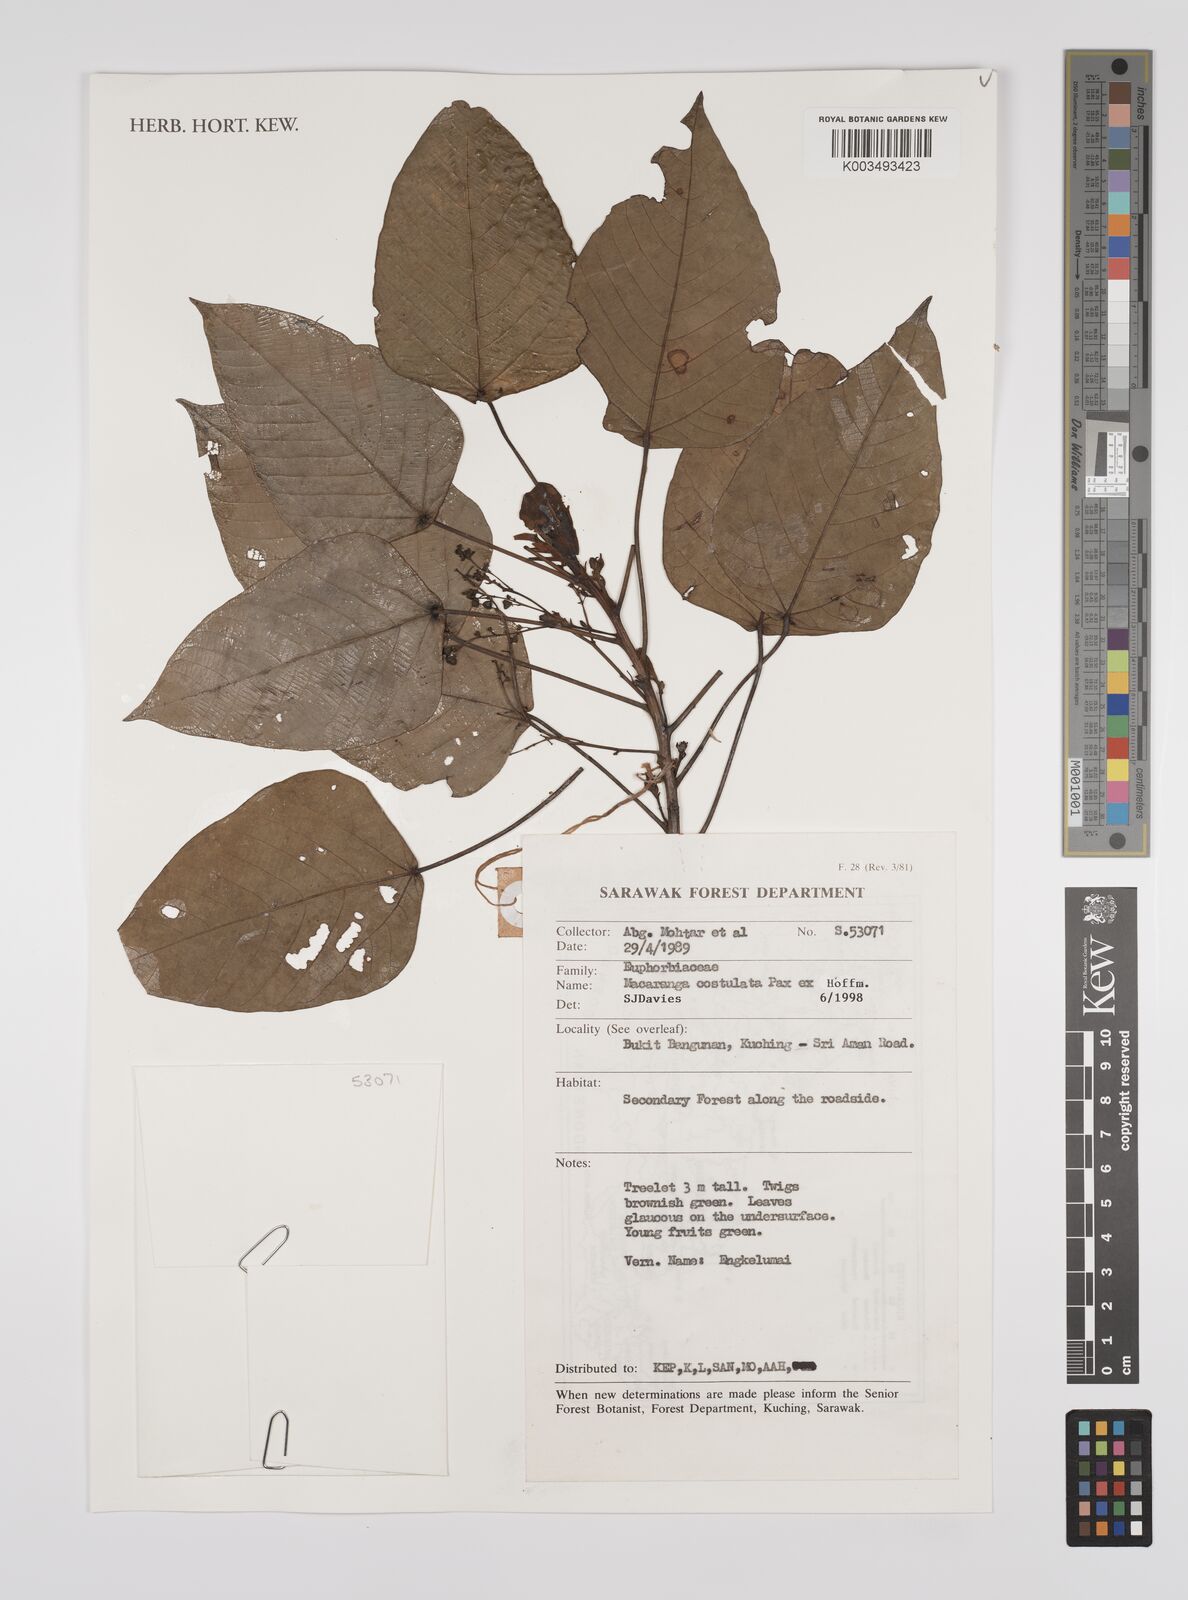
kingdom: Plantae
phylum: Tracheophyta
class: Magnoliopsida
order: Malpighiales
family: Euphorbiaceae
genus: Macaranga
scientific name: Macaranga costulata
